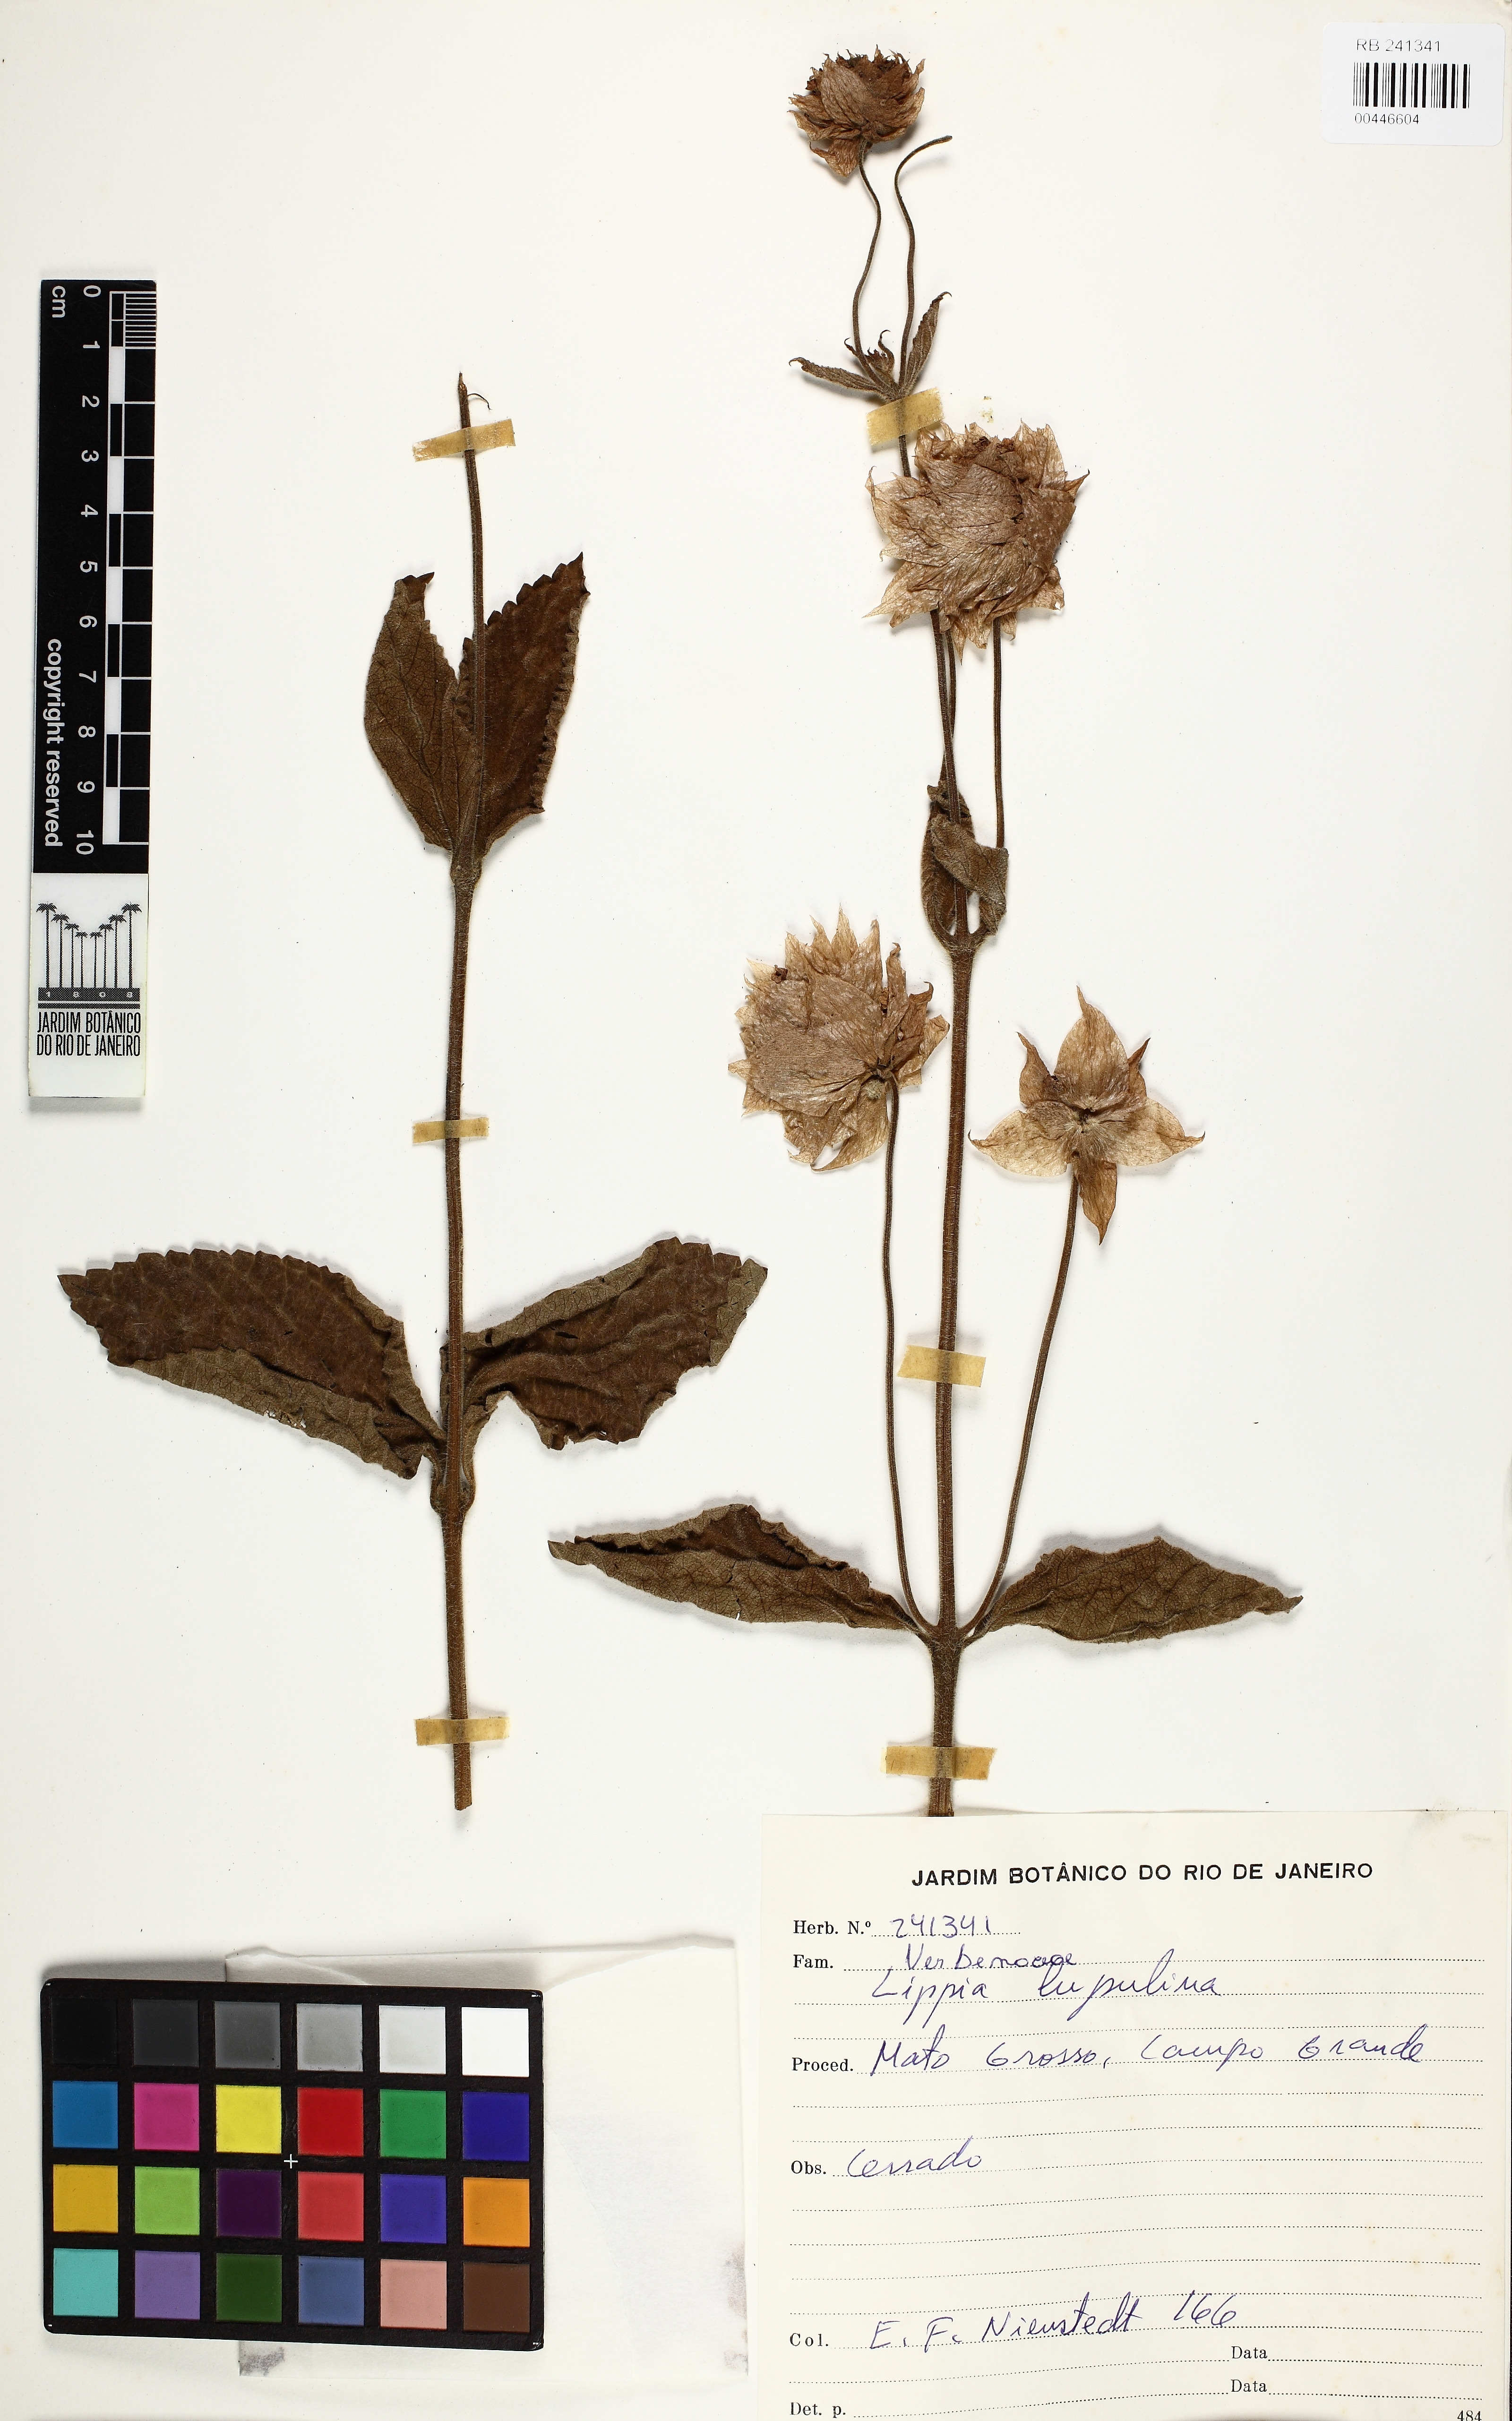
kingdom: Plantae
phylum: Tracheophyta
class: Magnoliopsida
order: Lamiales
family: Verbenaceae
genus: Lippia
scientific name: Lippia lupulina
